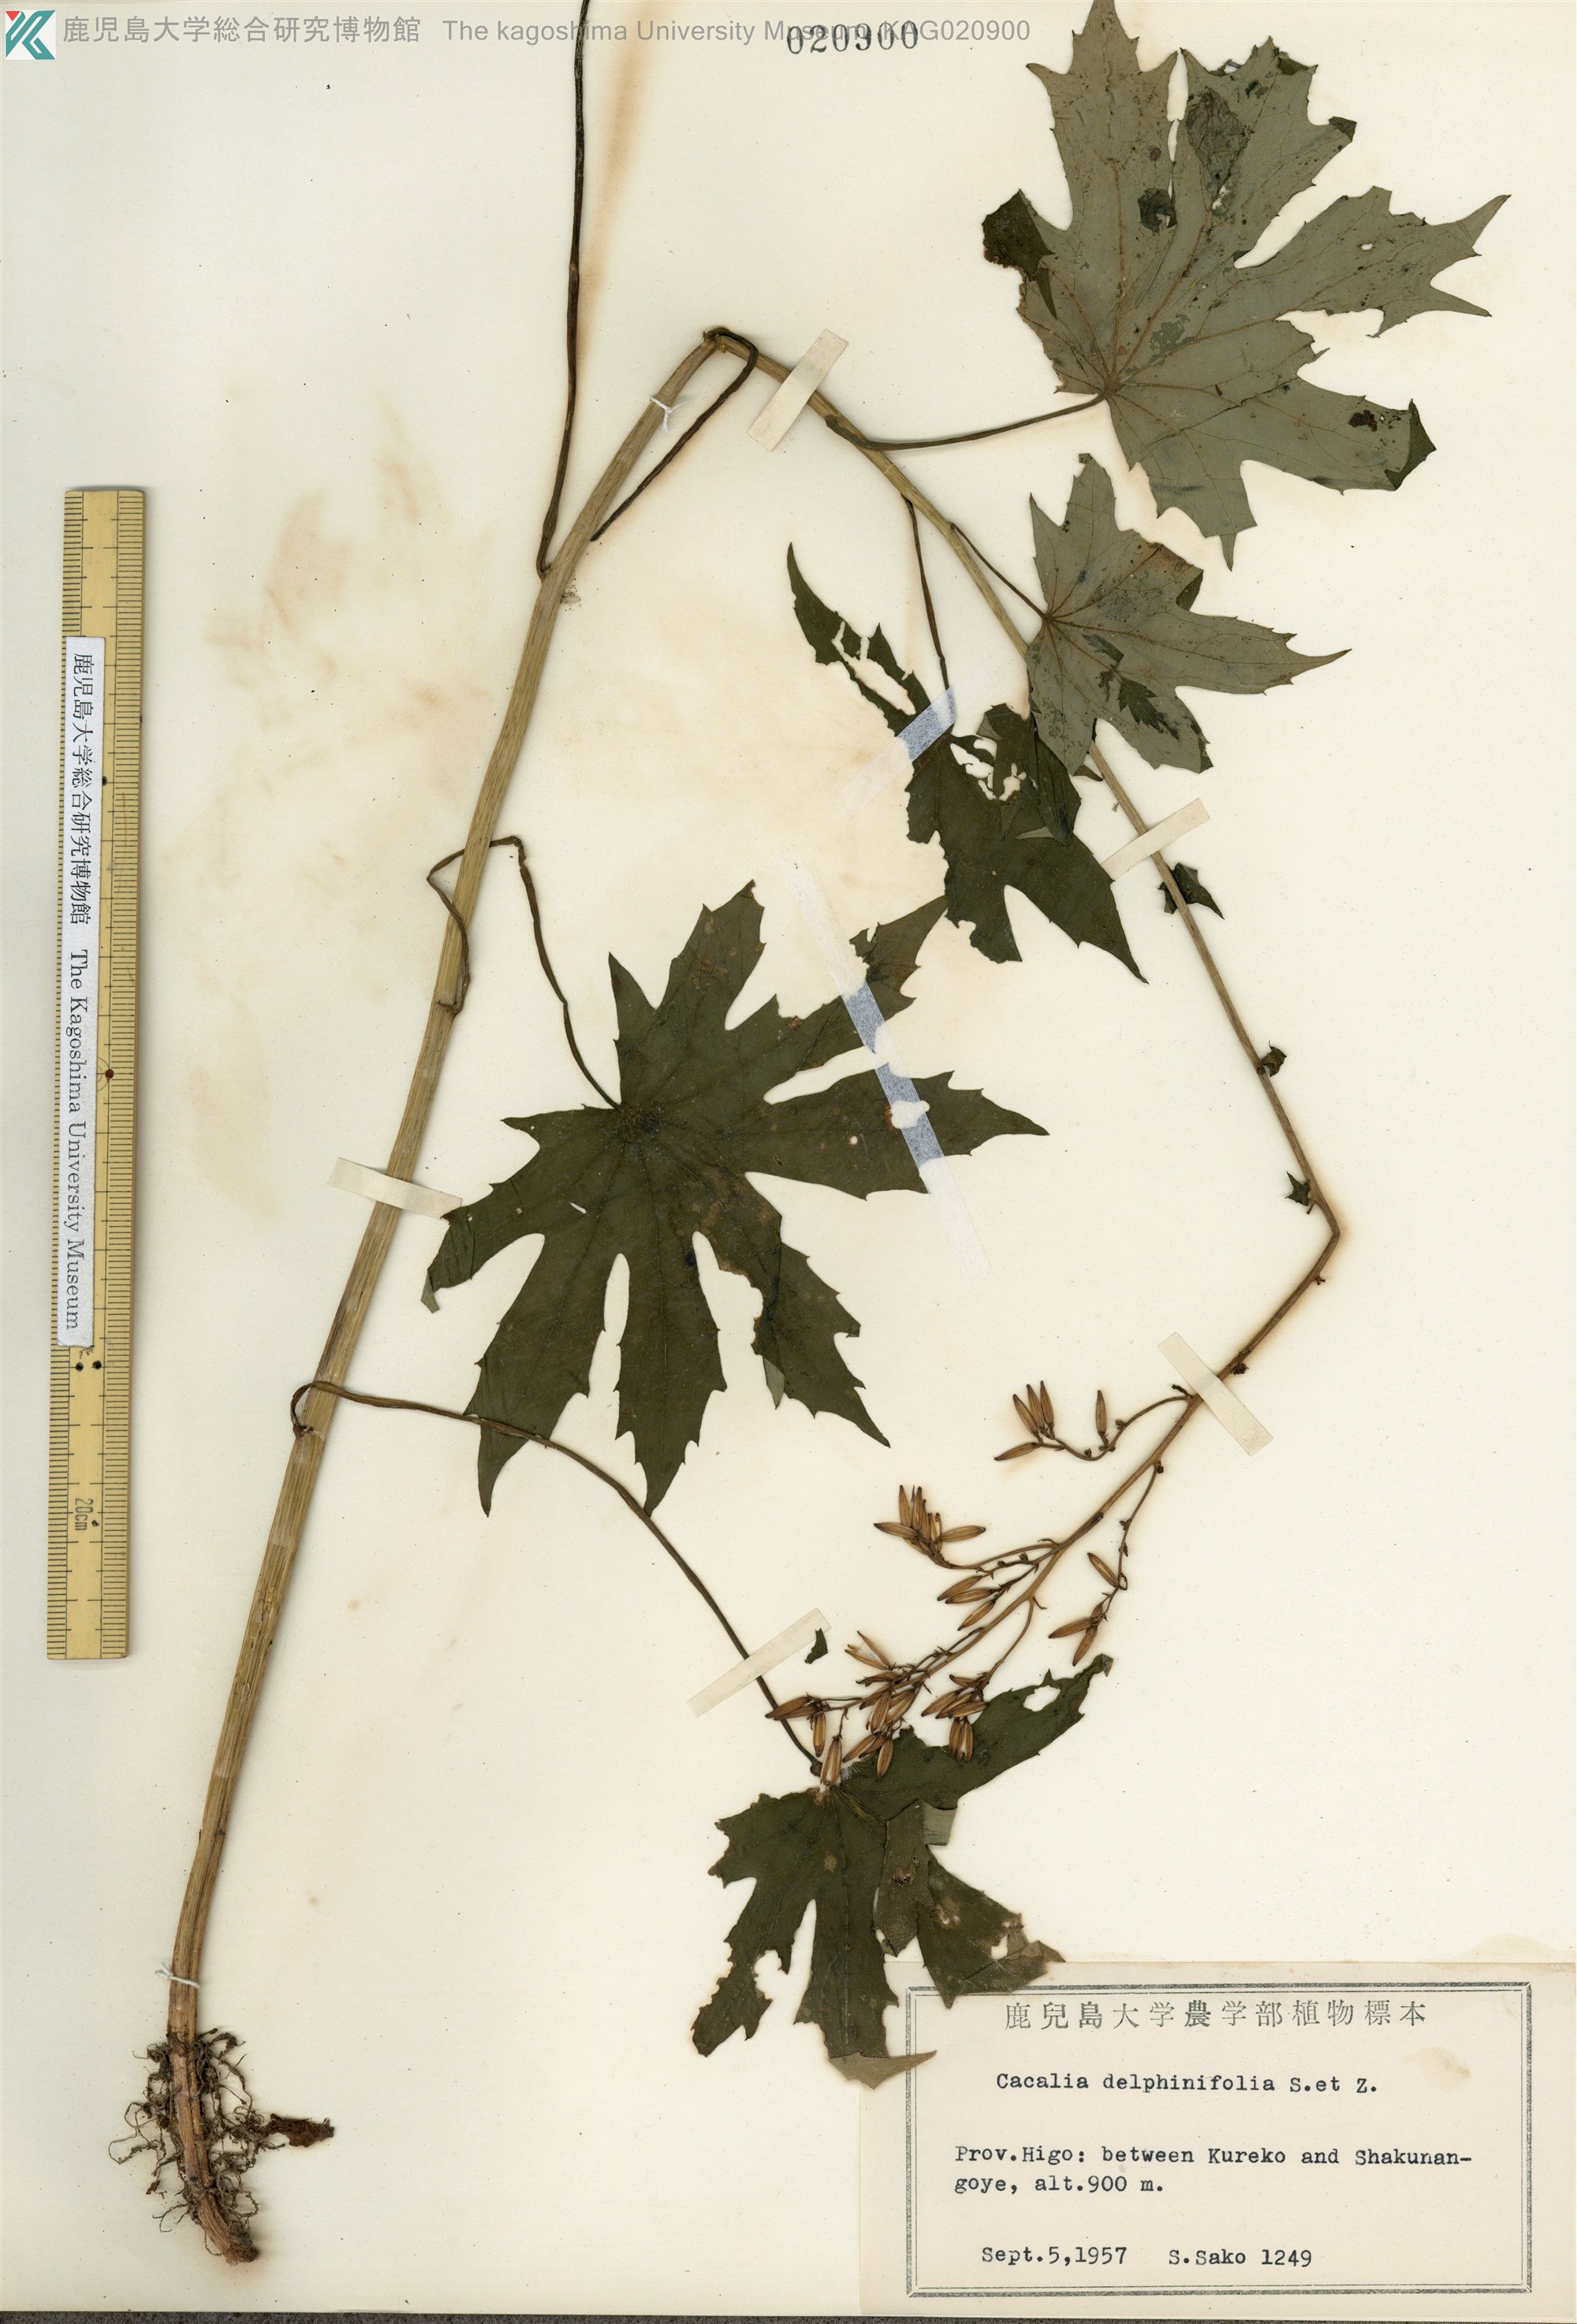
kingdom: Plantae
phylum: Tracheophyta
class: Magnoliopsida
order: Asterales
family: Asteraceae
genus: Japonicalia
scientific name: Japonicalia delphiniifolia
